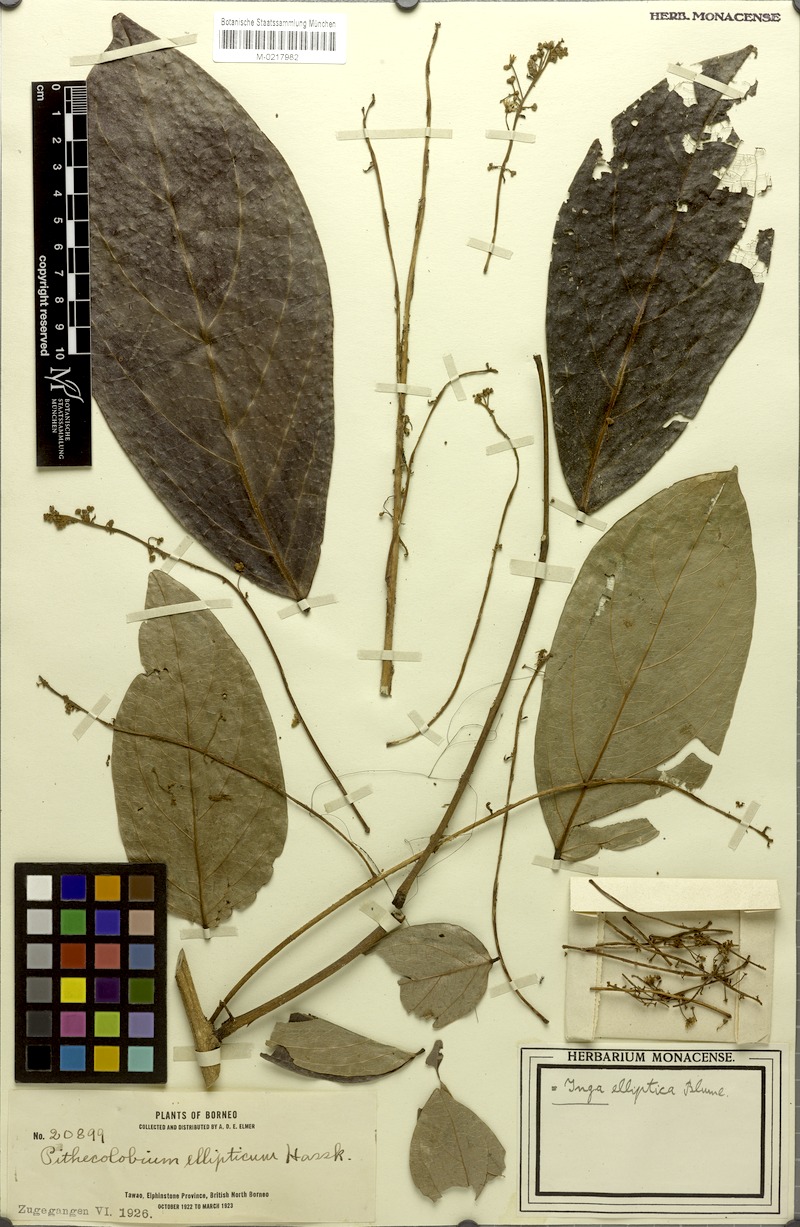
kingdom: Plantae
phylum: Tracheophyta
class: Magnoliopsida
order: Fabales
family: Fabaceae
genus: Archidendron
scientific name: Archidendron ellipticum
